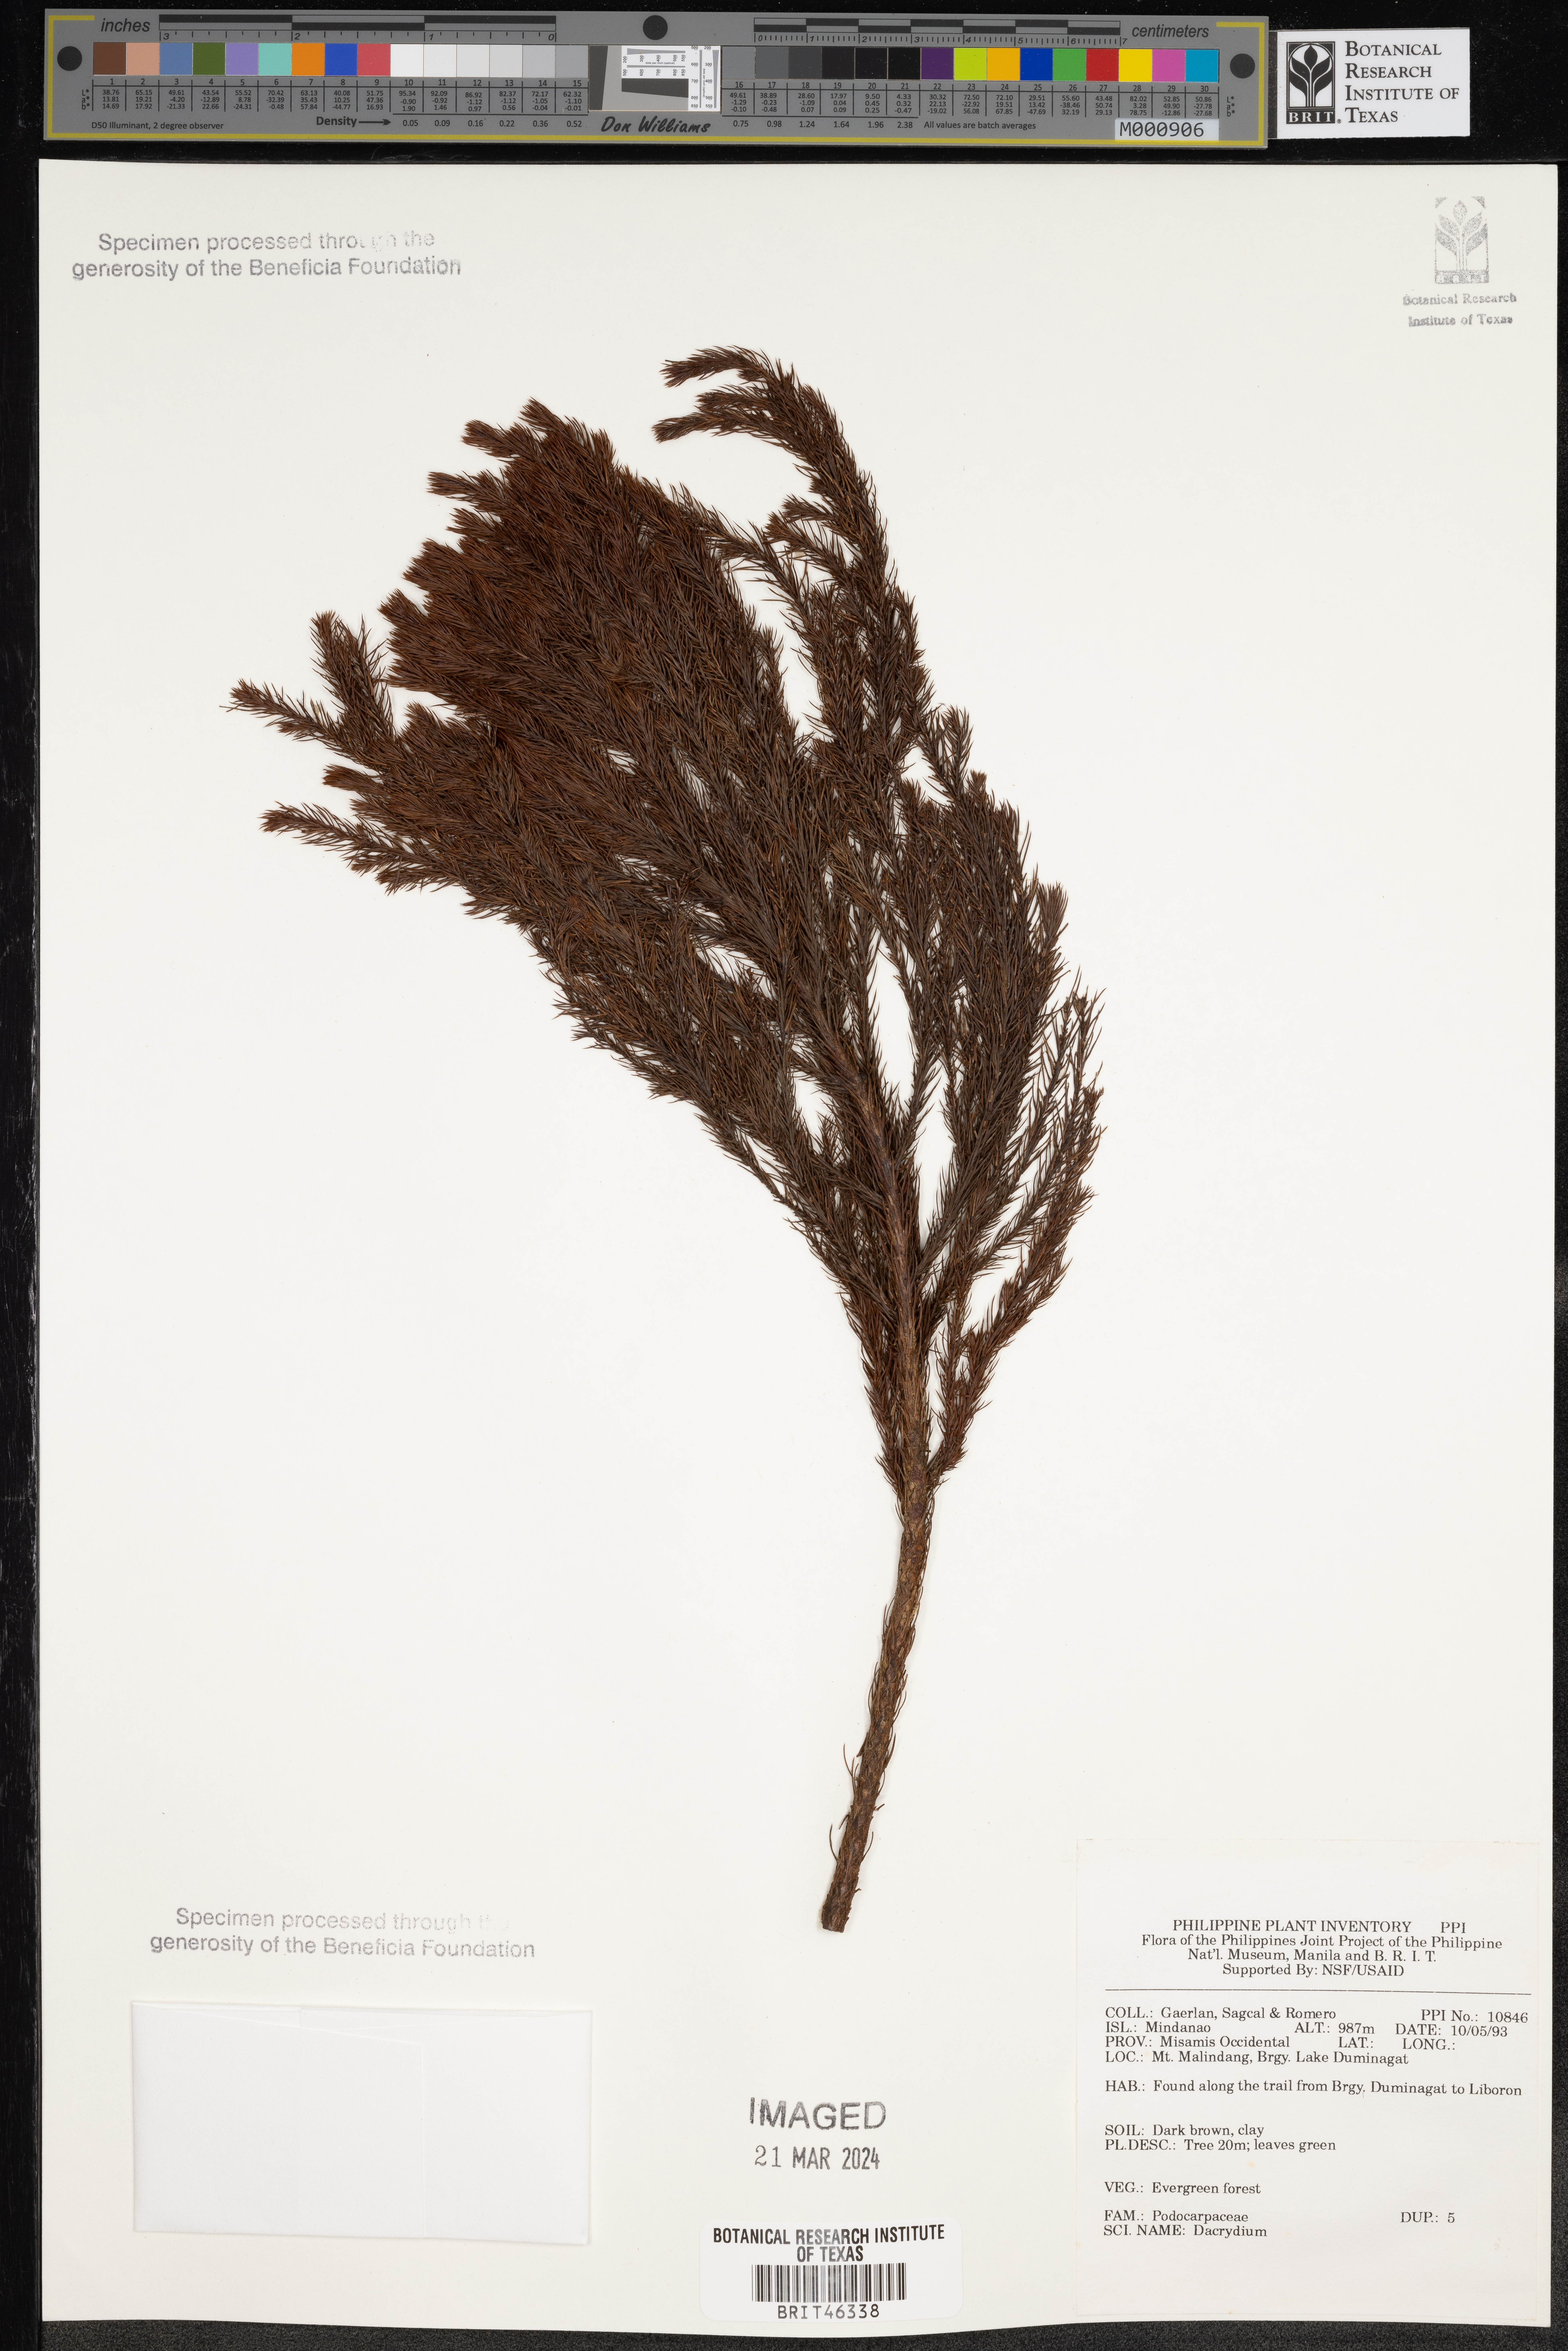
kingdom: Plantae
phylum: Tracheophyta
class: Pinopsida
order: Pinales
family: Podocarpaceae
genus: Dacrydium
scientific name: Dacrydium
